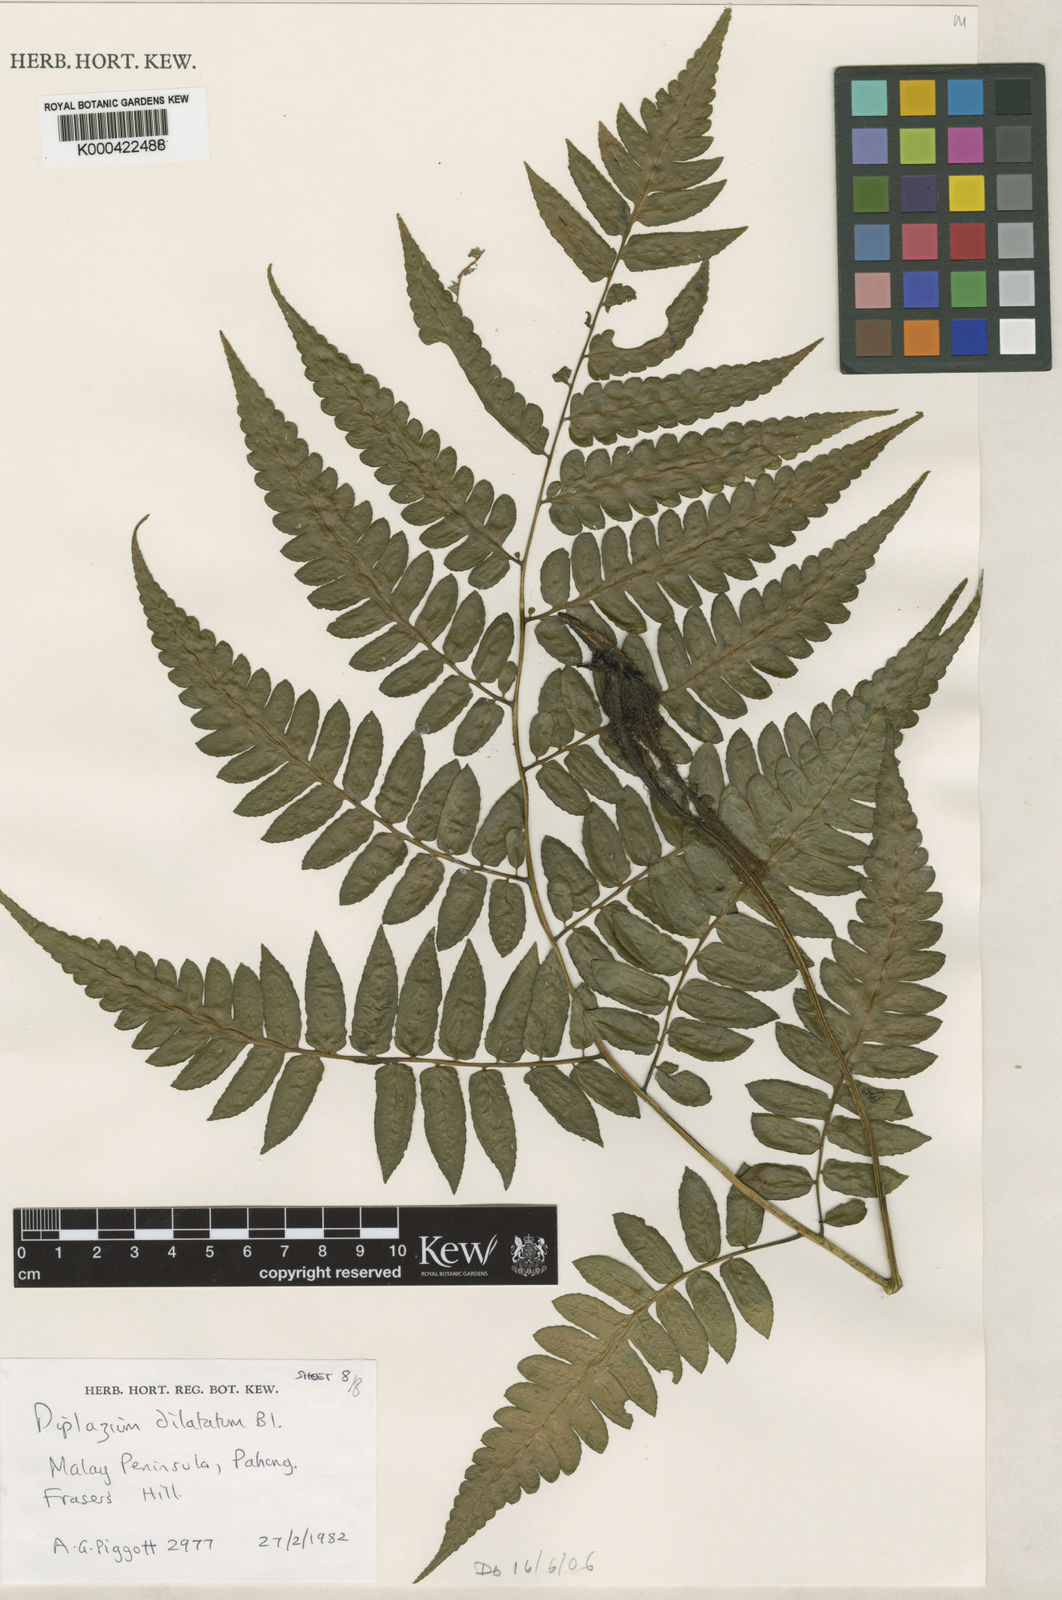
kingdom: Plantae
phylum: Tracheophyta
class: Polypodiopsida
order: Polypodiales
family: Athyriaceae
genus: Diplazium
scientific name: Diplazium dilatatum
